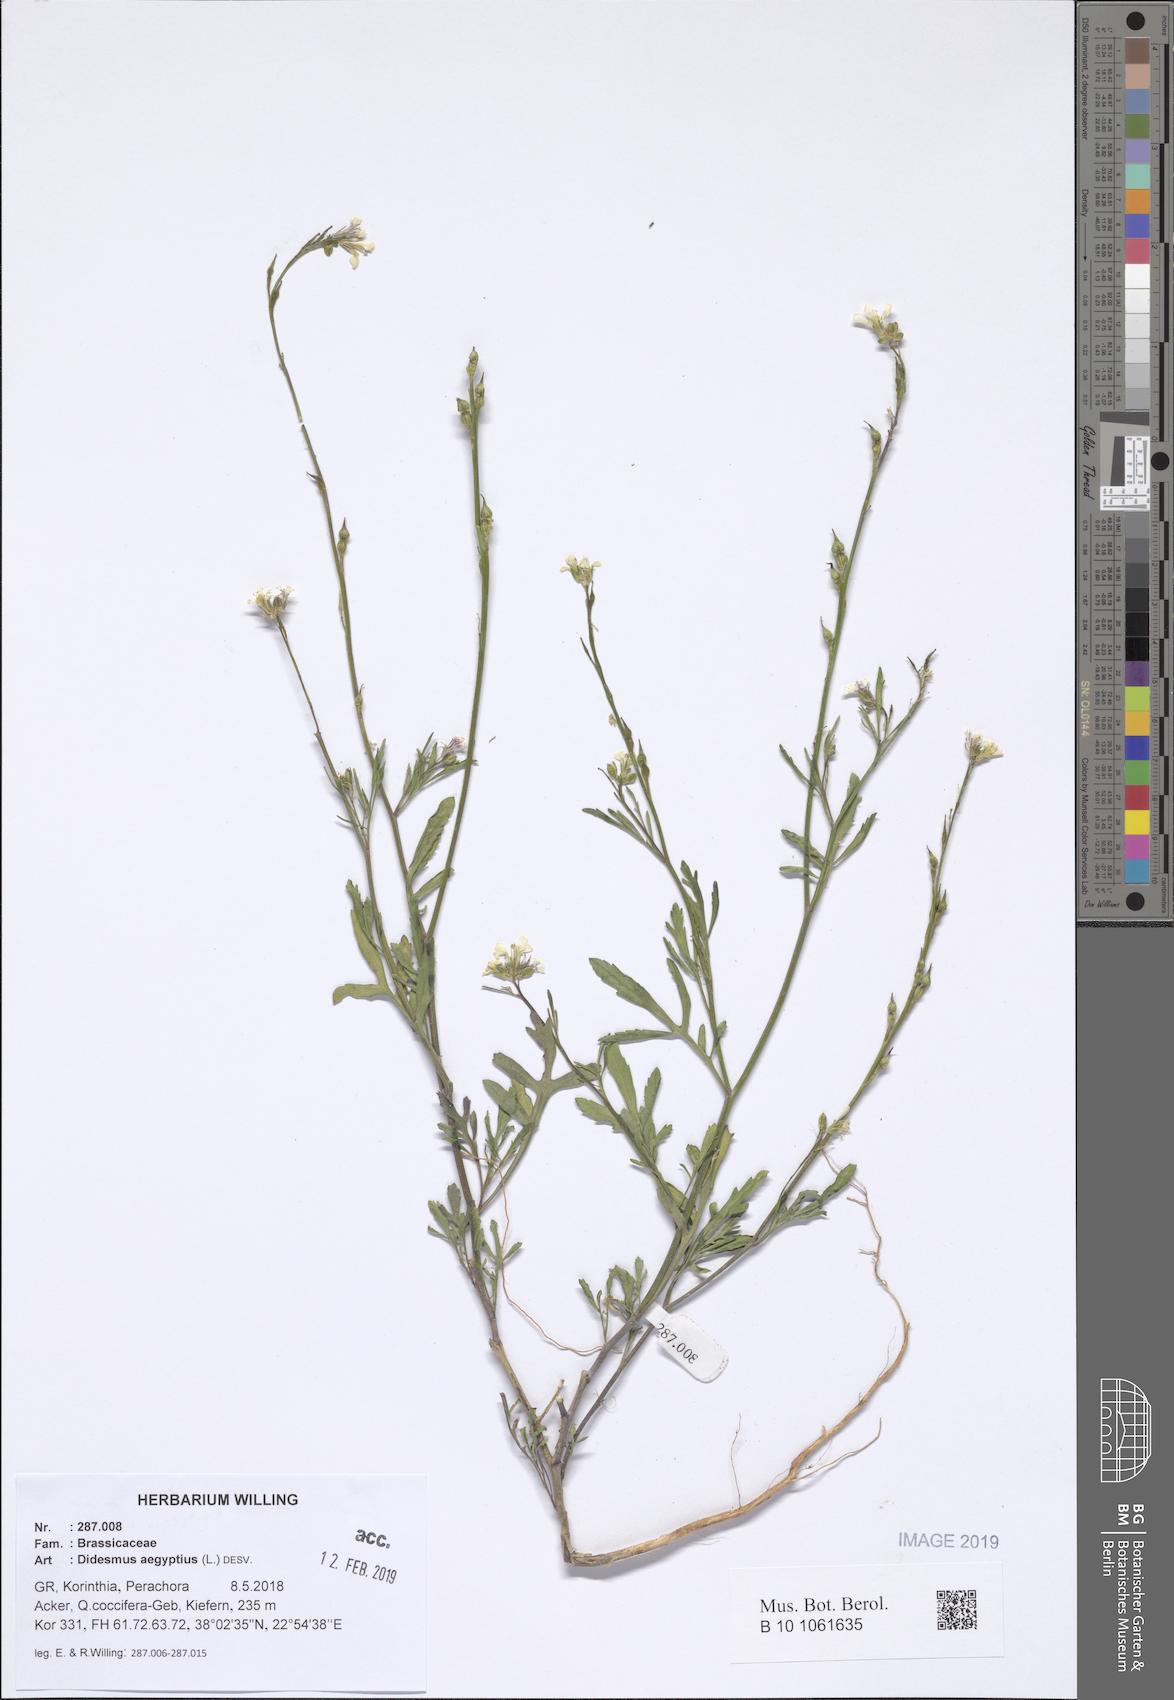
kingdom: Plantae
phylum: Tracheophyta
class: Magnoliopsida
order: Brassicales
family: Brassicaceae
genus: Didesmus
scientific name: Didesmus aegyptius
